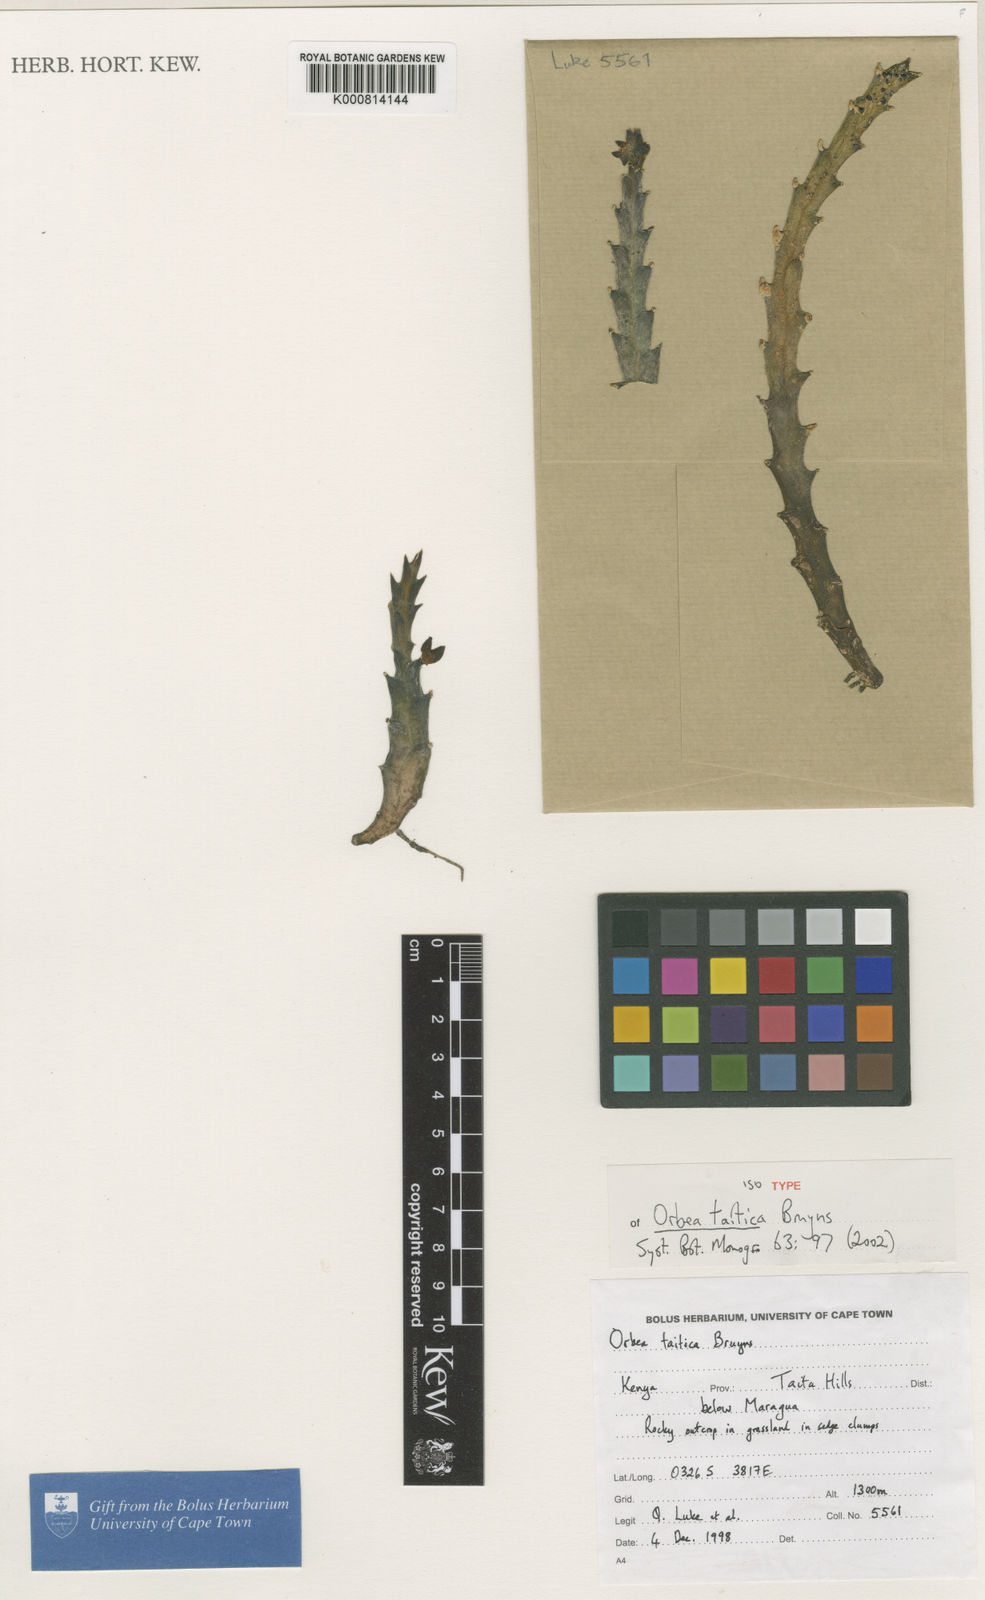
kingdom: Plantae
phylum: Tracheophyta
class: Magnoliopsida
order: Gentianales
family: Apocynaceae
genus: Ceropegia
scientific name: Ceropegia taitica
